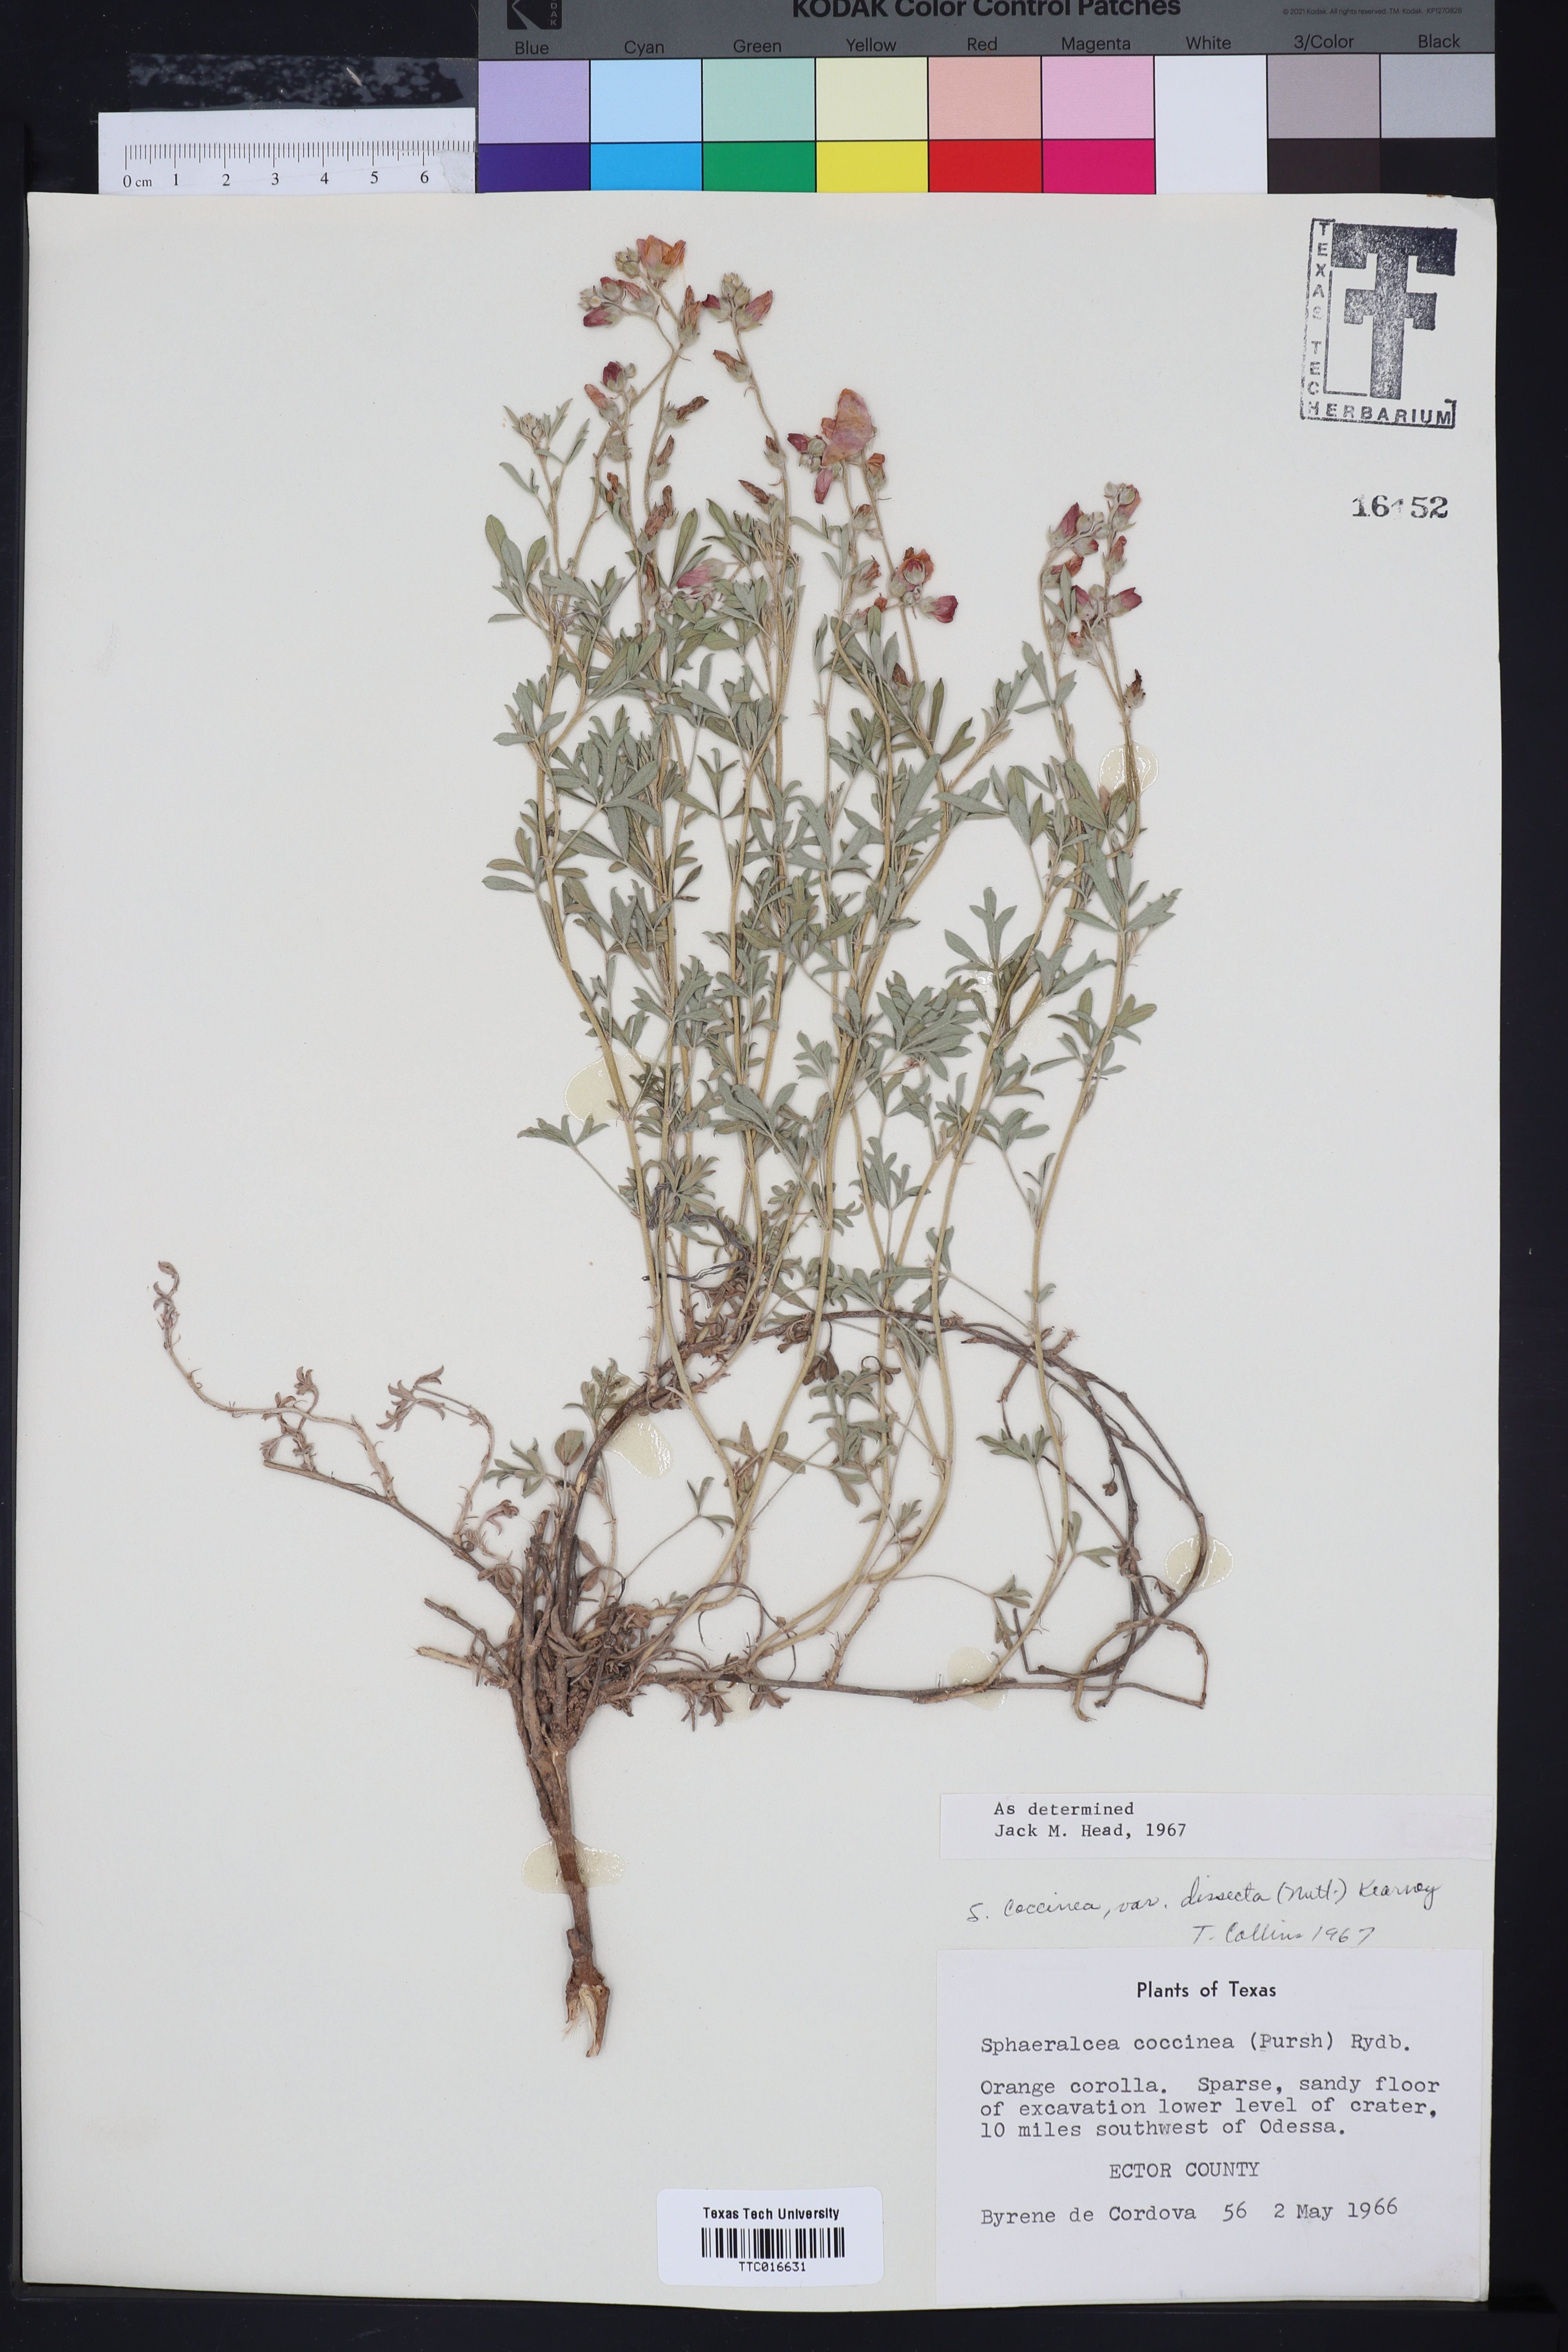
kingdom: Plantae
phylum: Tracheophyta
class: Magnoliopsida
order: Malvales
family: Malvaceae
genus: Sphaeralcea
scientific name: Sphaeralcea coccinea
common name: Moss-rose
